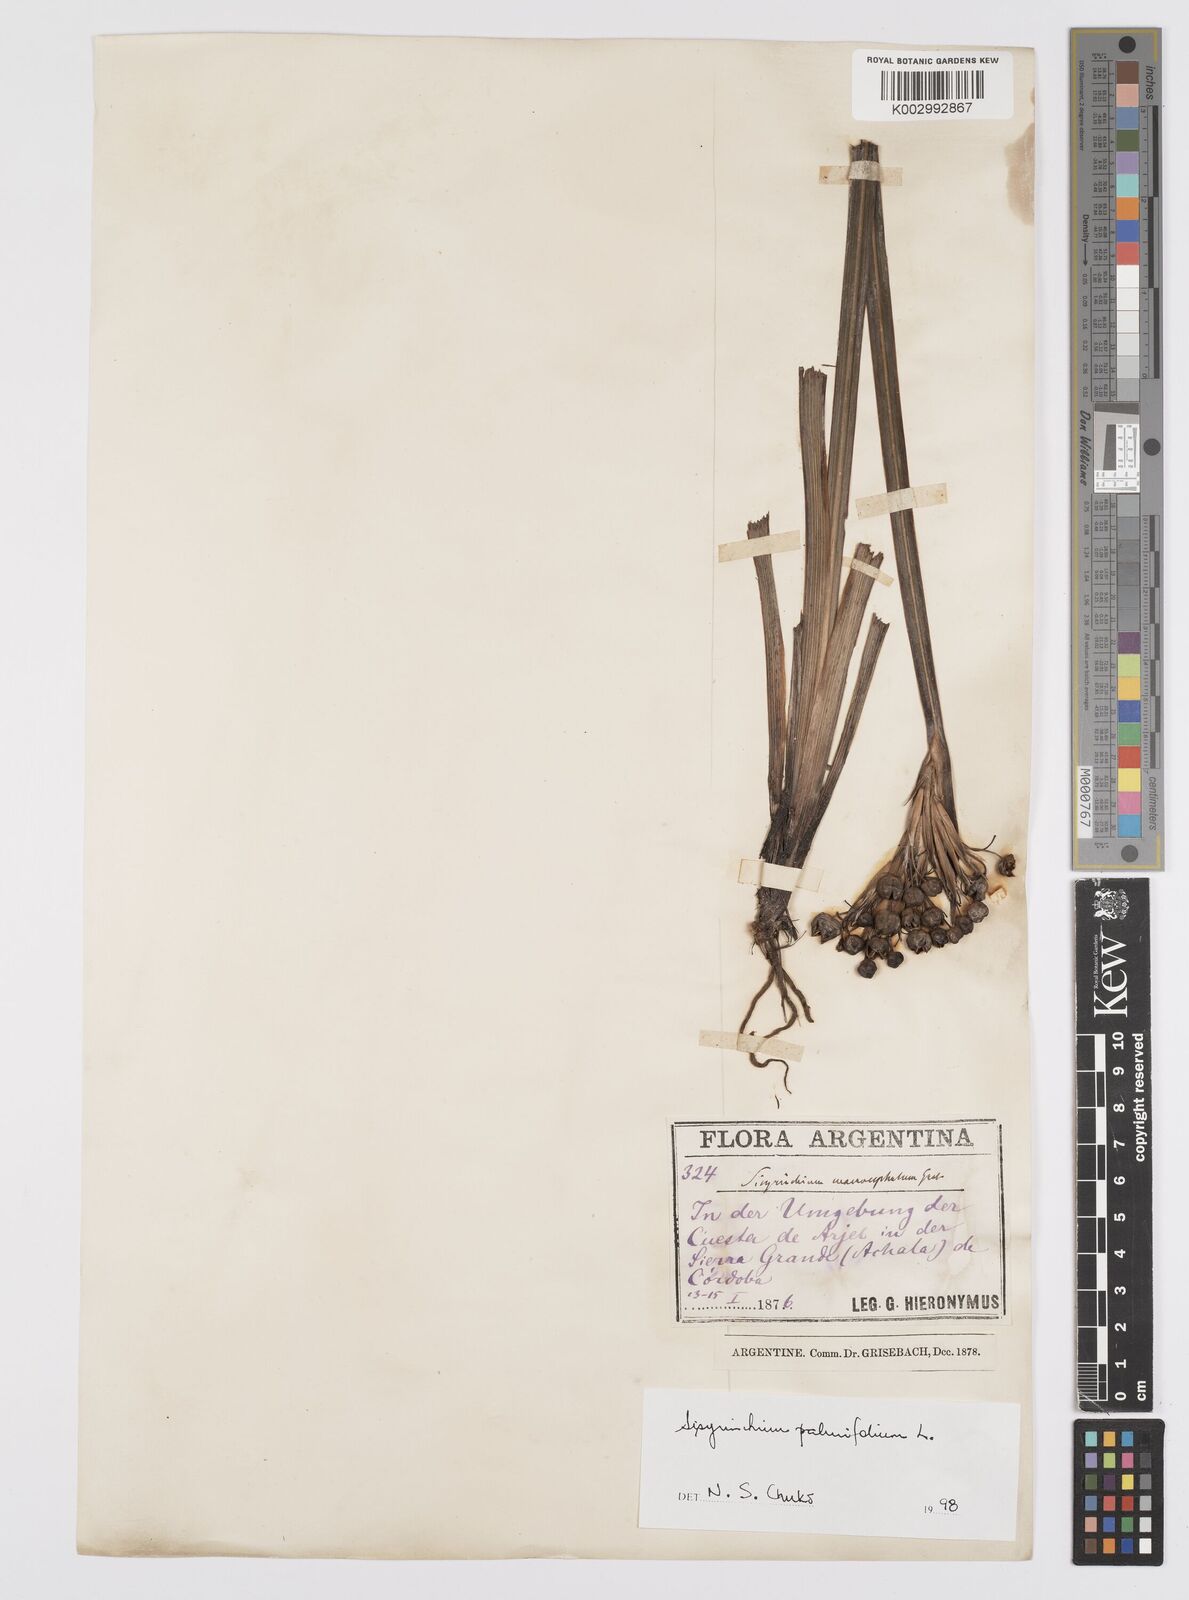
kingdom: Plantae
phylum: Tracheophyta
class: Liliopsida
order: Asparagales
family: Iridaceae
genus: Sisyrinchium
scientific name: Sisyrinchium palmifolium
